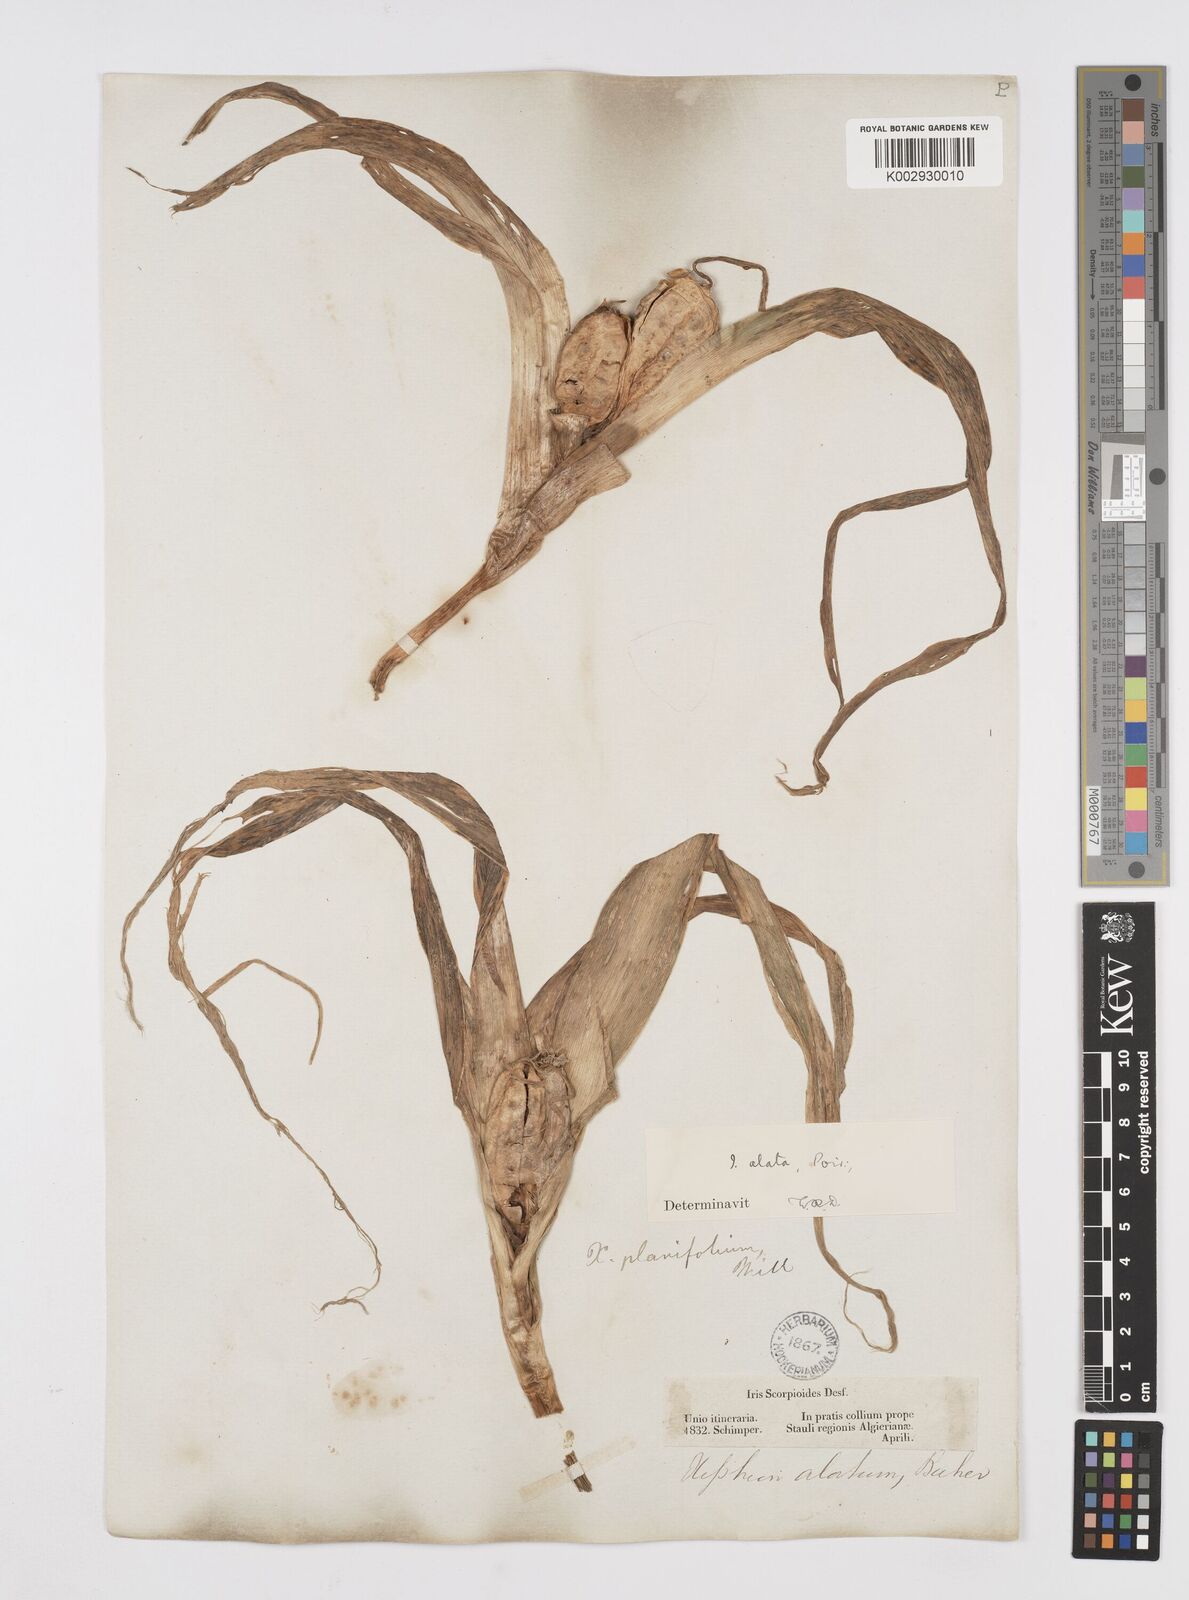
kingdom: Plantae
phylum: Tracheophyta
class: Liliopsida
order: Asparagales
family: Iridaceae
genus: Iris
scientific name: Iris planifolia
